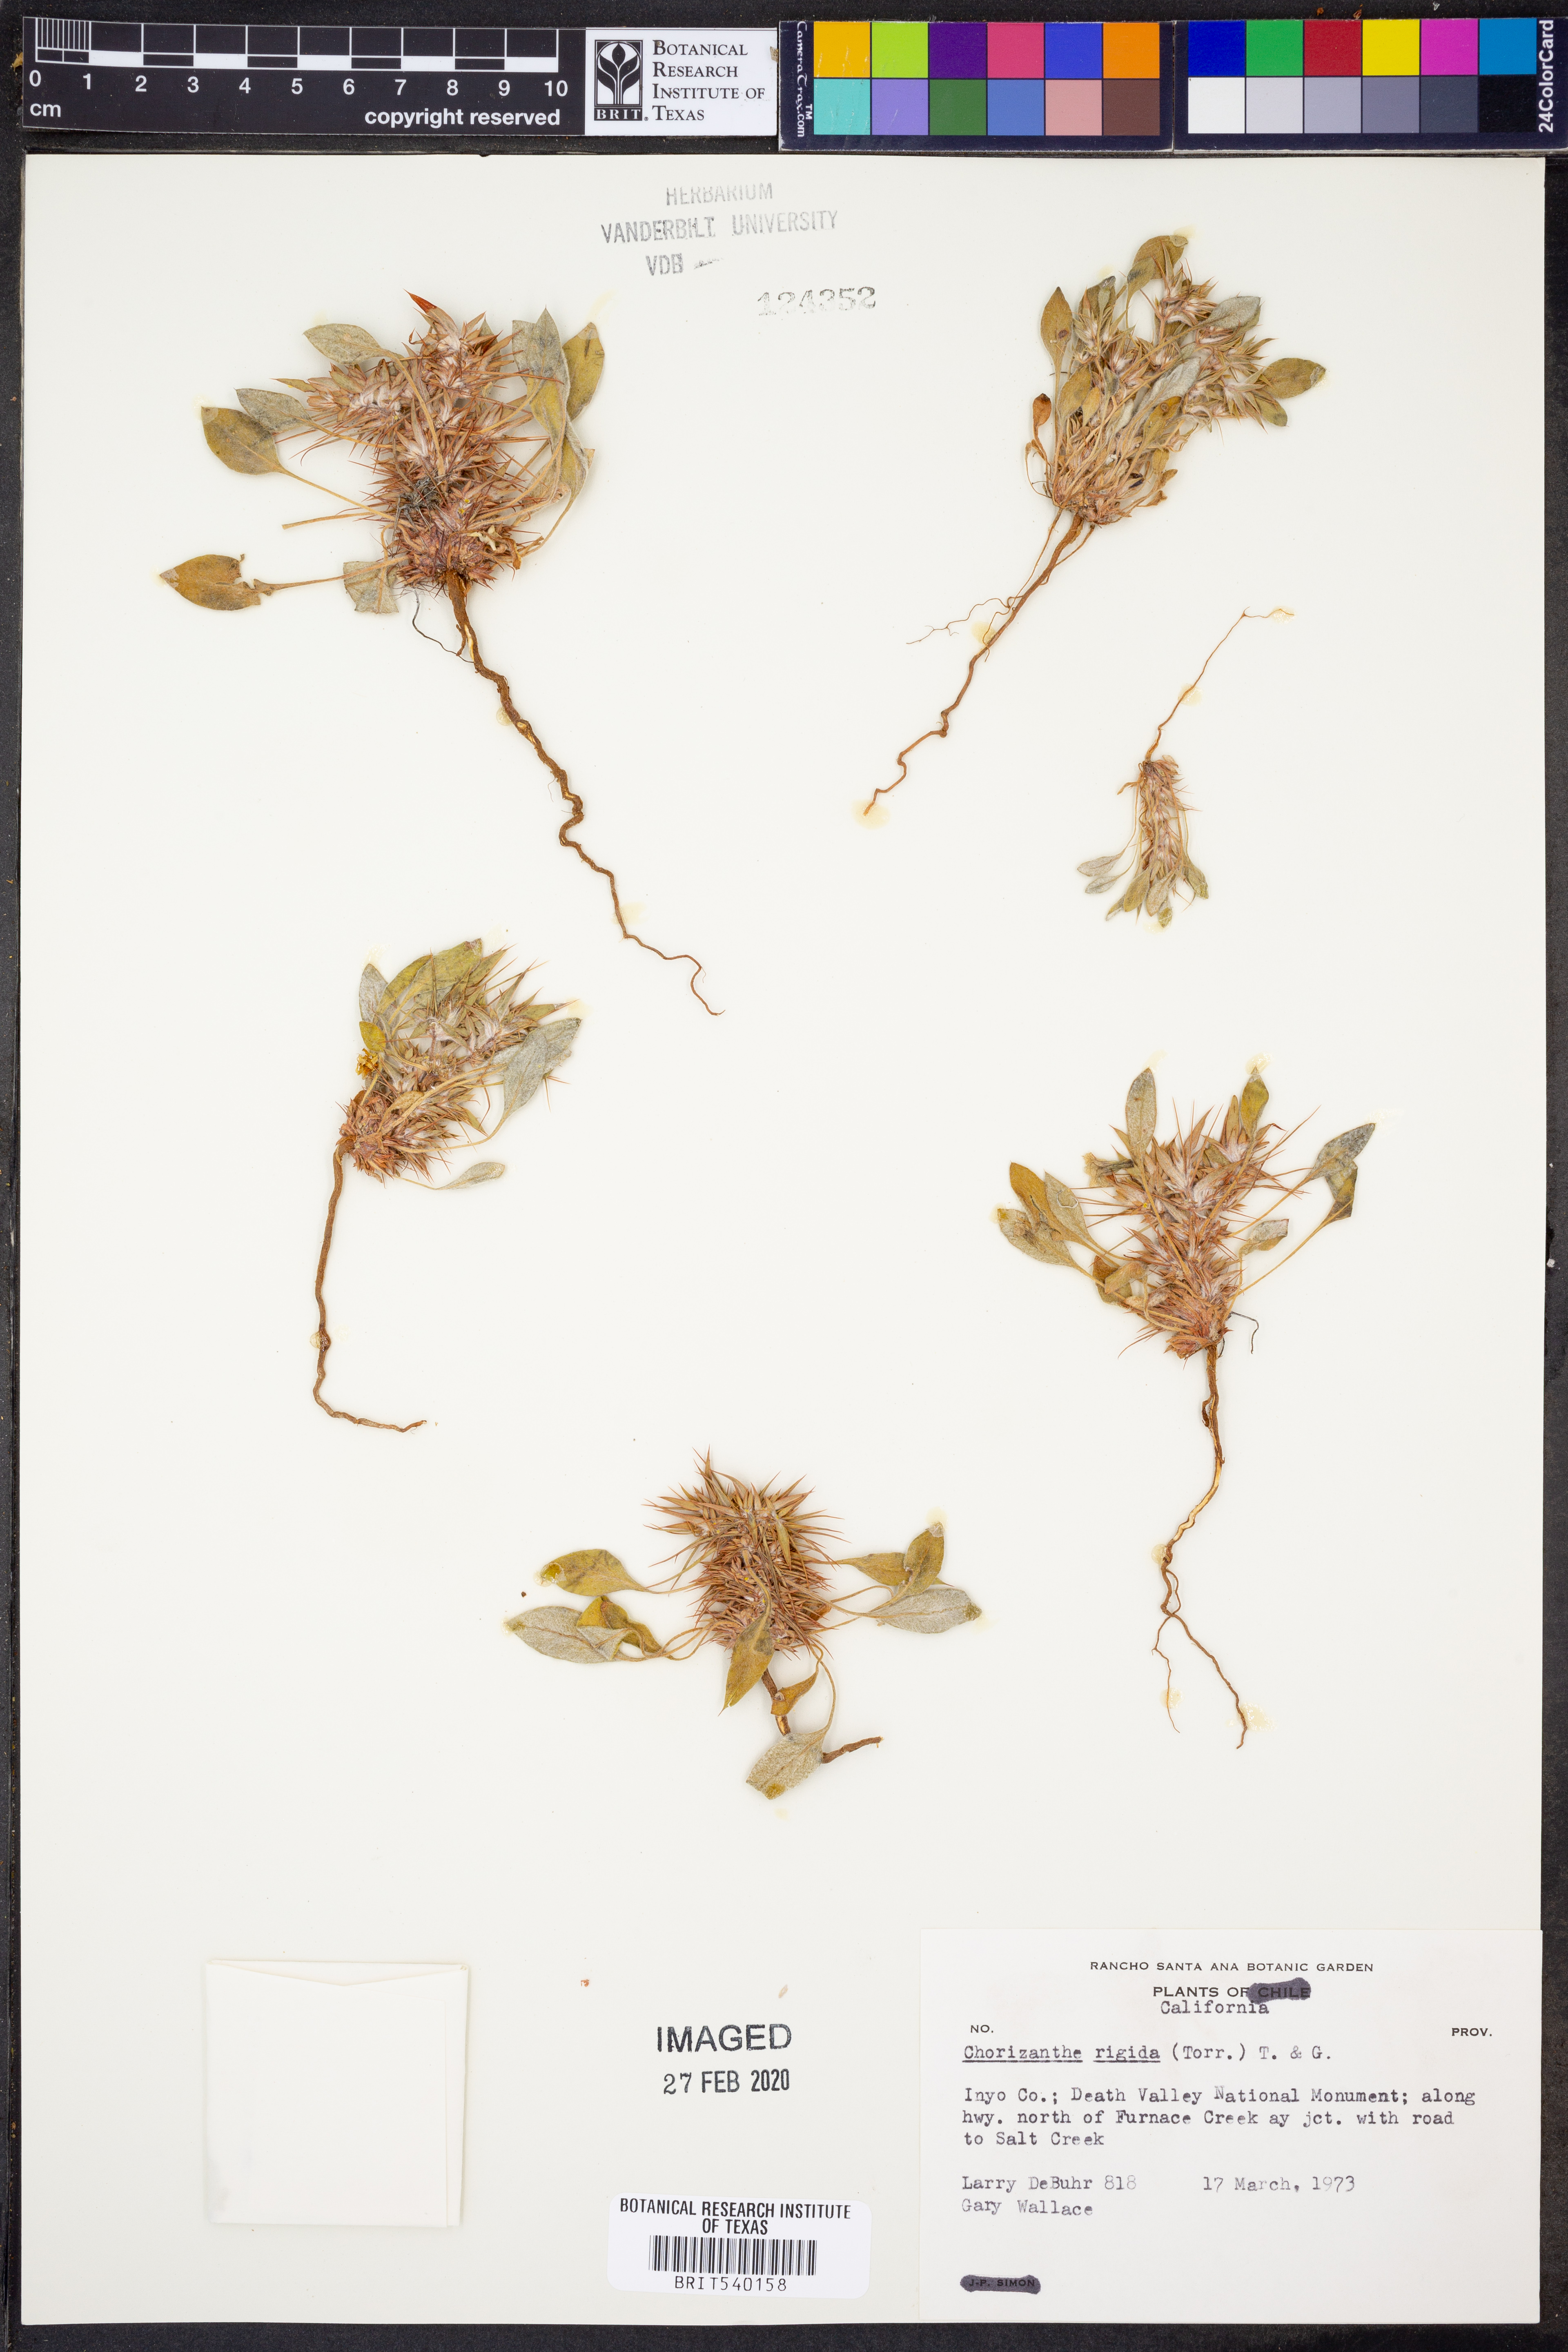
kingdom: Plantae
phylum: Tracheophyta
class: Magnoliopsida
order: Caryophyllales
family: Polygonaceae
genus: Chorizanthe
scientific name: Chorizanthe rigida
